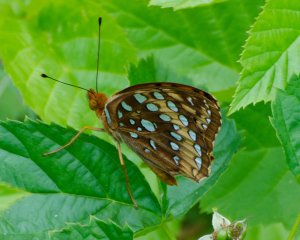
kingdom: Animalia
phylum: Arthropoda
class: Insecta
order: Lepidoptera
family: Nymphalidae
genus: Speyeria
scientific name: Speyeria cybele
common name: Great Spangled Fritillary
